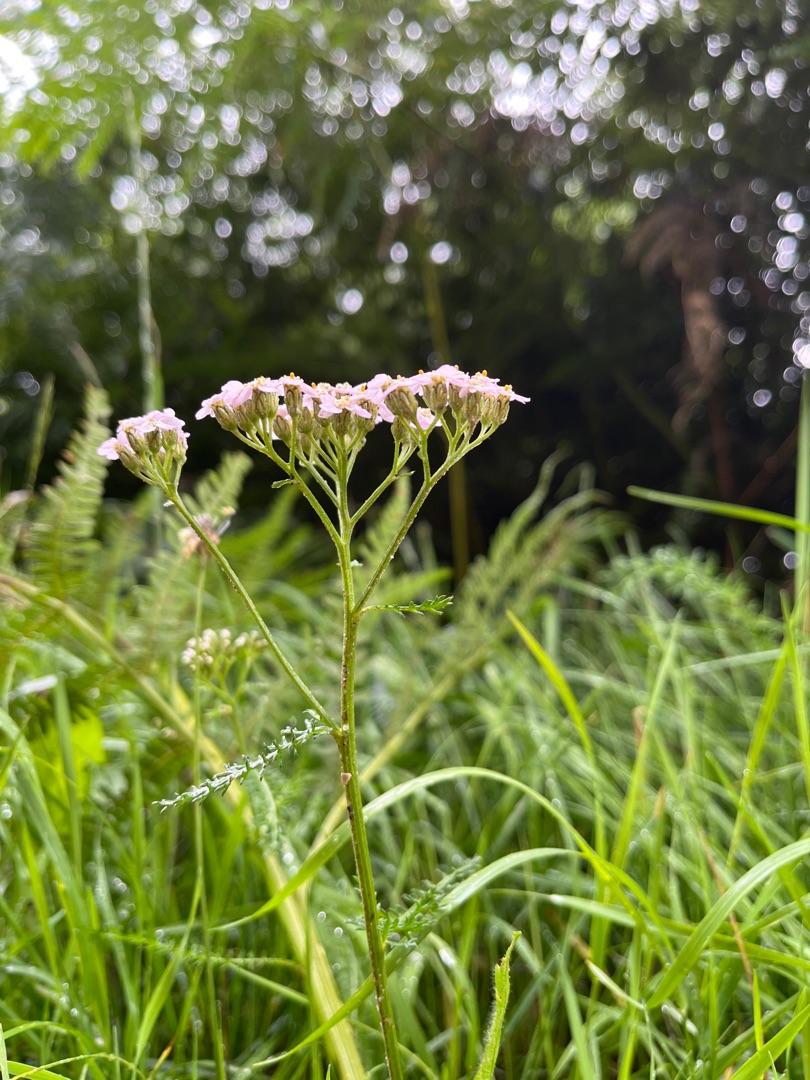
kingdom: Plantae
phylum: Tracheophyta
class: Magnoliopsida
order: Asterales
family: Asteraceae
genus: Achillea
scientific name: Achillea millefolium
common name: Almindelig røllike
